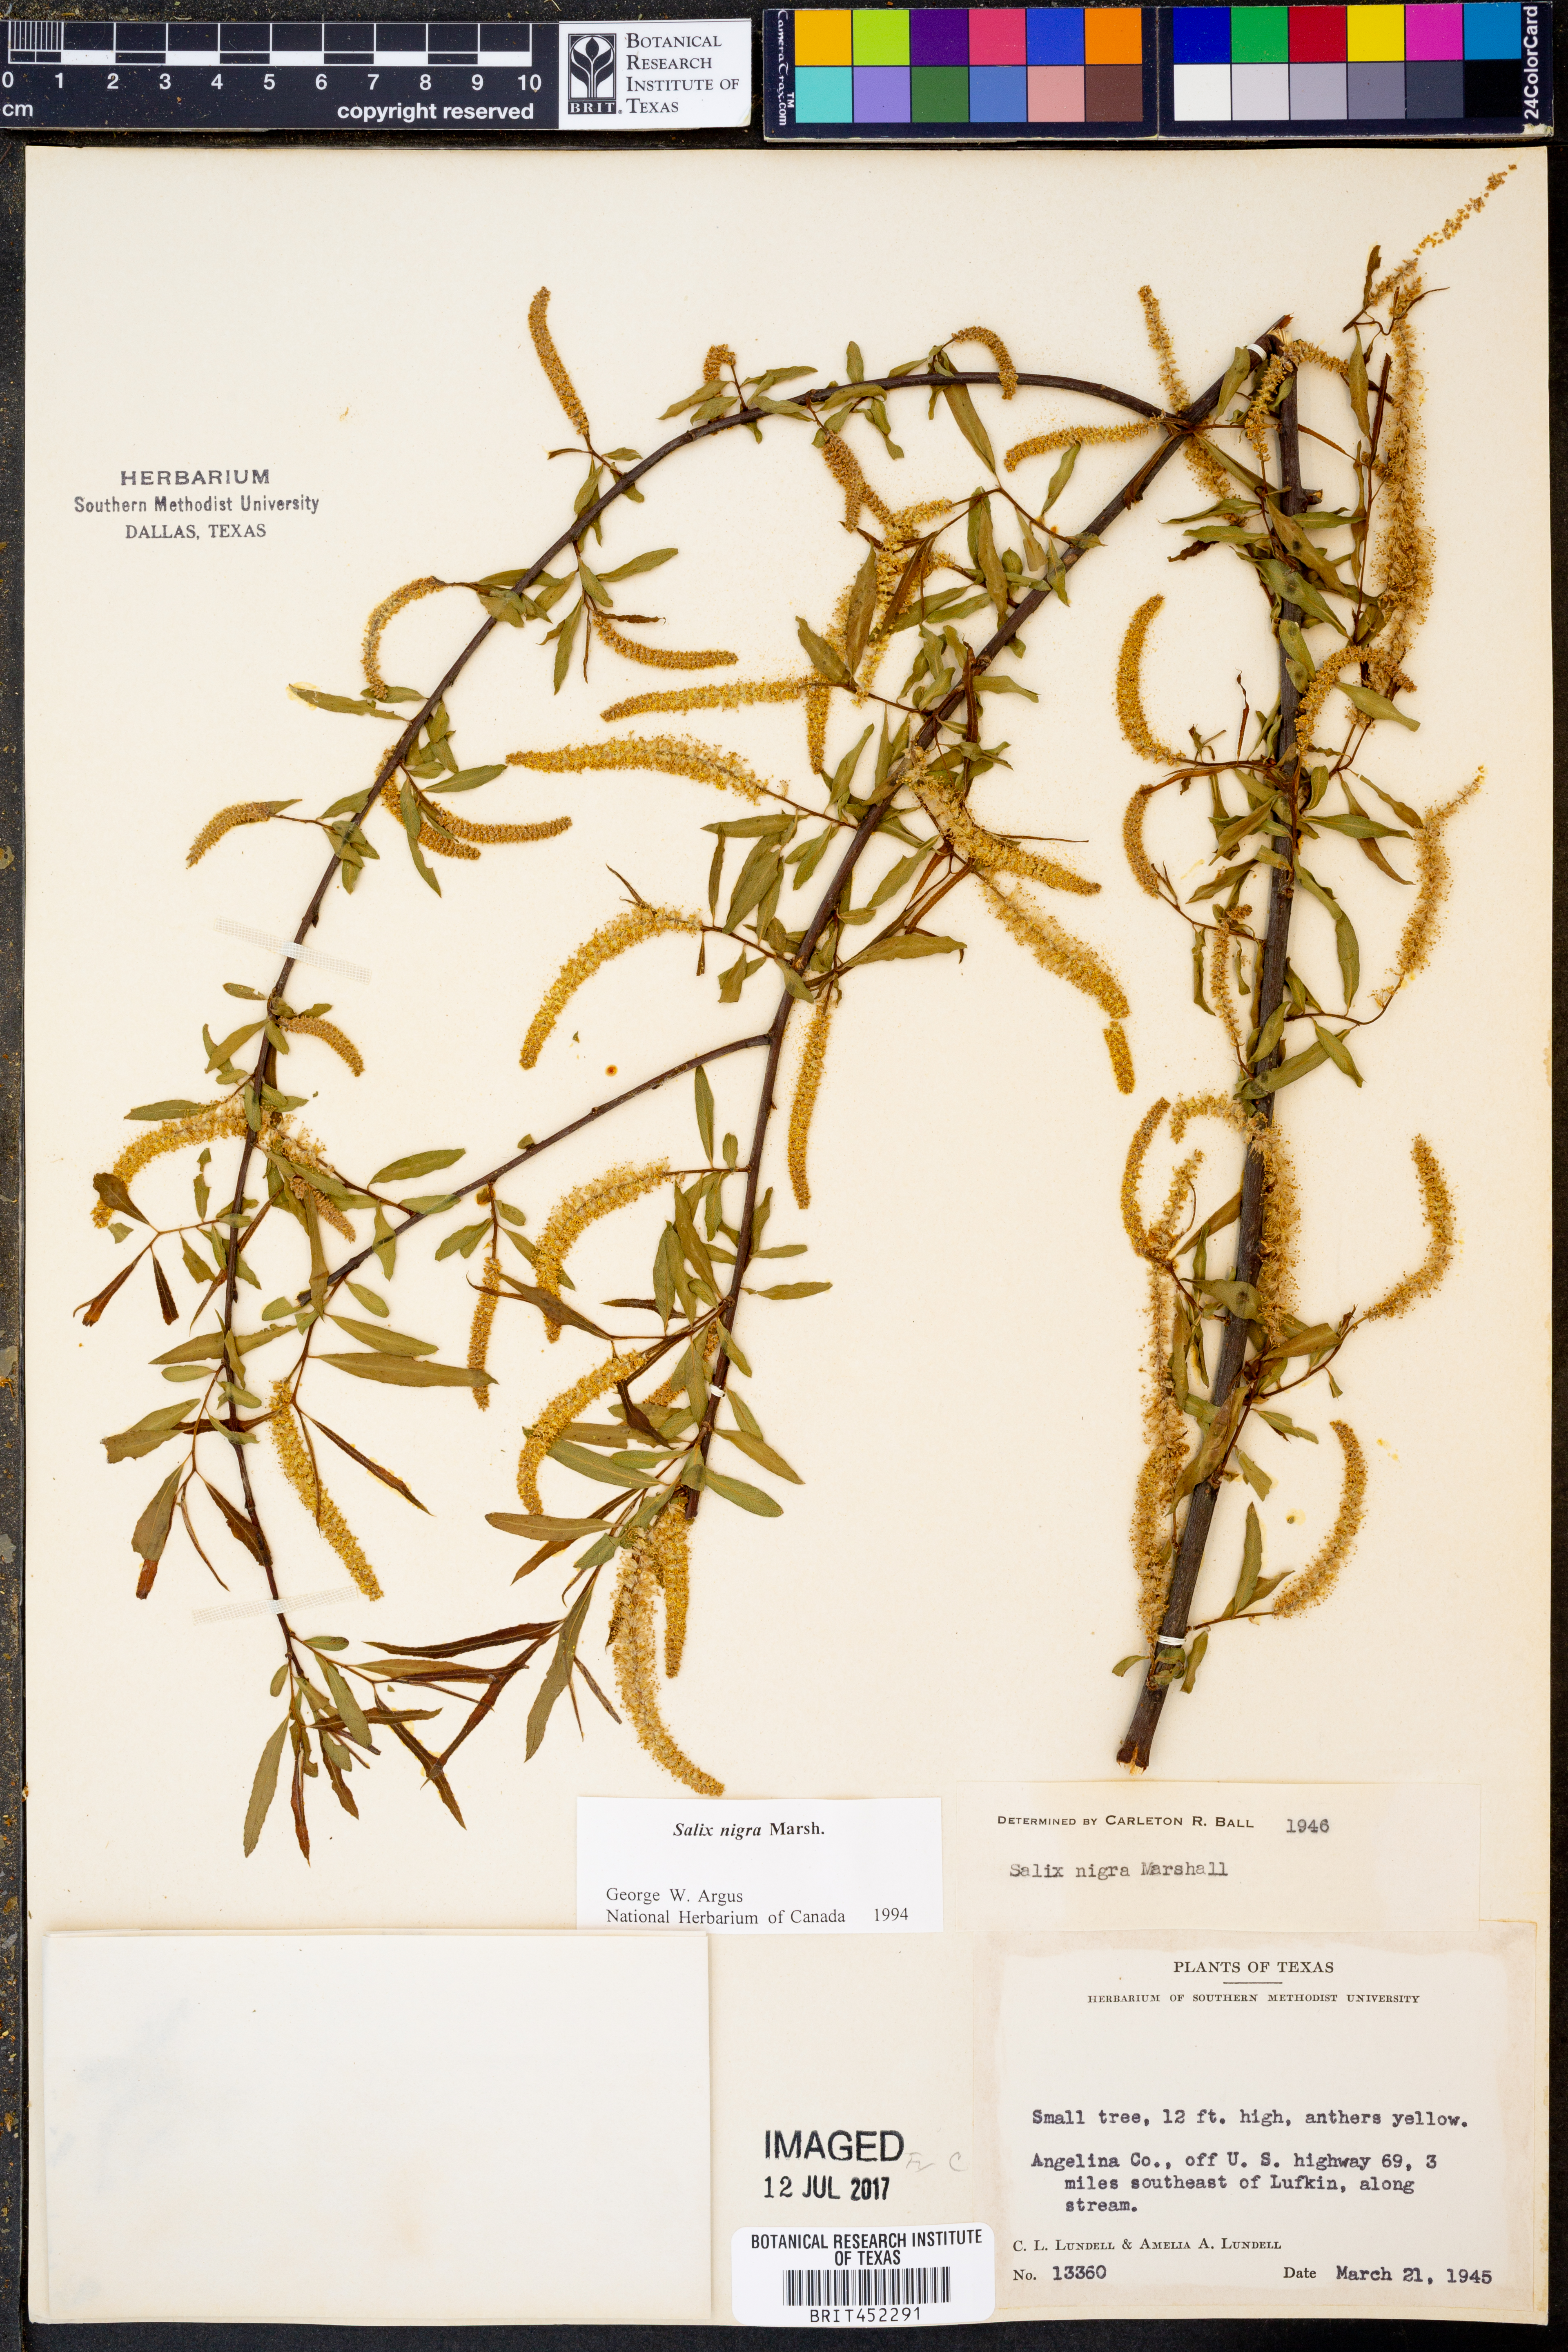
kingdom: Plantae
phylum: Tracheophyta
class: Magnoliopsida
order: Malpighiales
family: Salicaceae
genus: Salix
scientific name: Salix nigra
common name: Black willow
